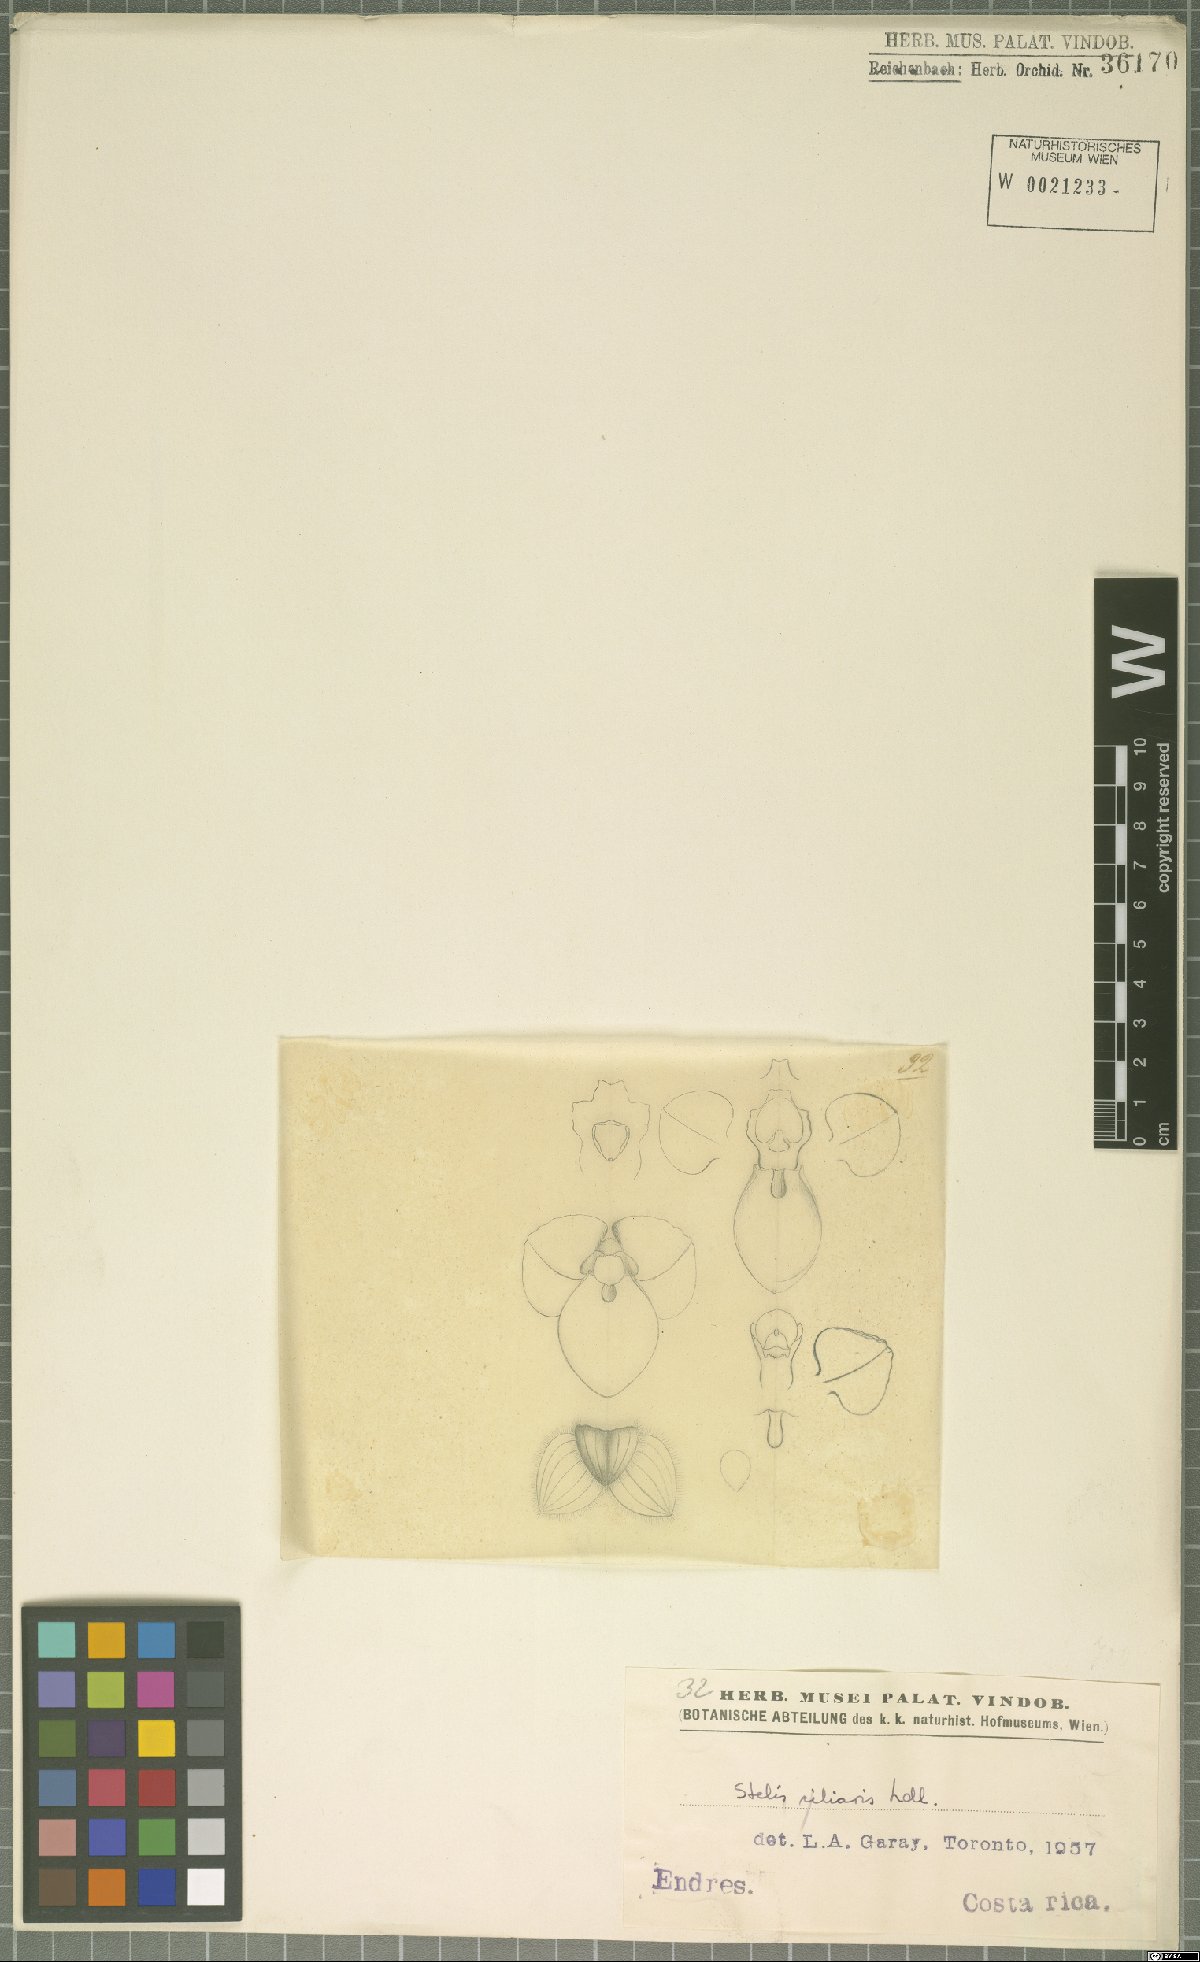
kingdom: Plantae
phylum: Tracheophyta
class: Liliopsida
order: Asparagales
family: Orchidaceae
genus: Stelis
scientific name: Stelis ciliaris
